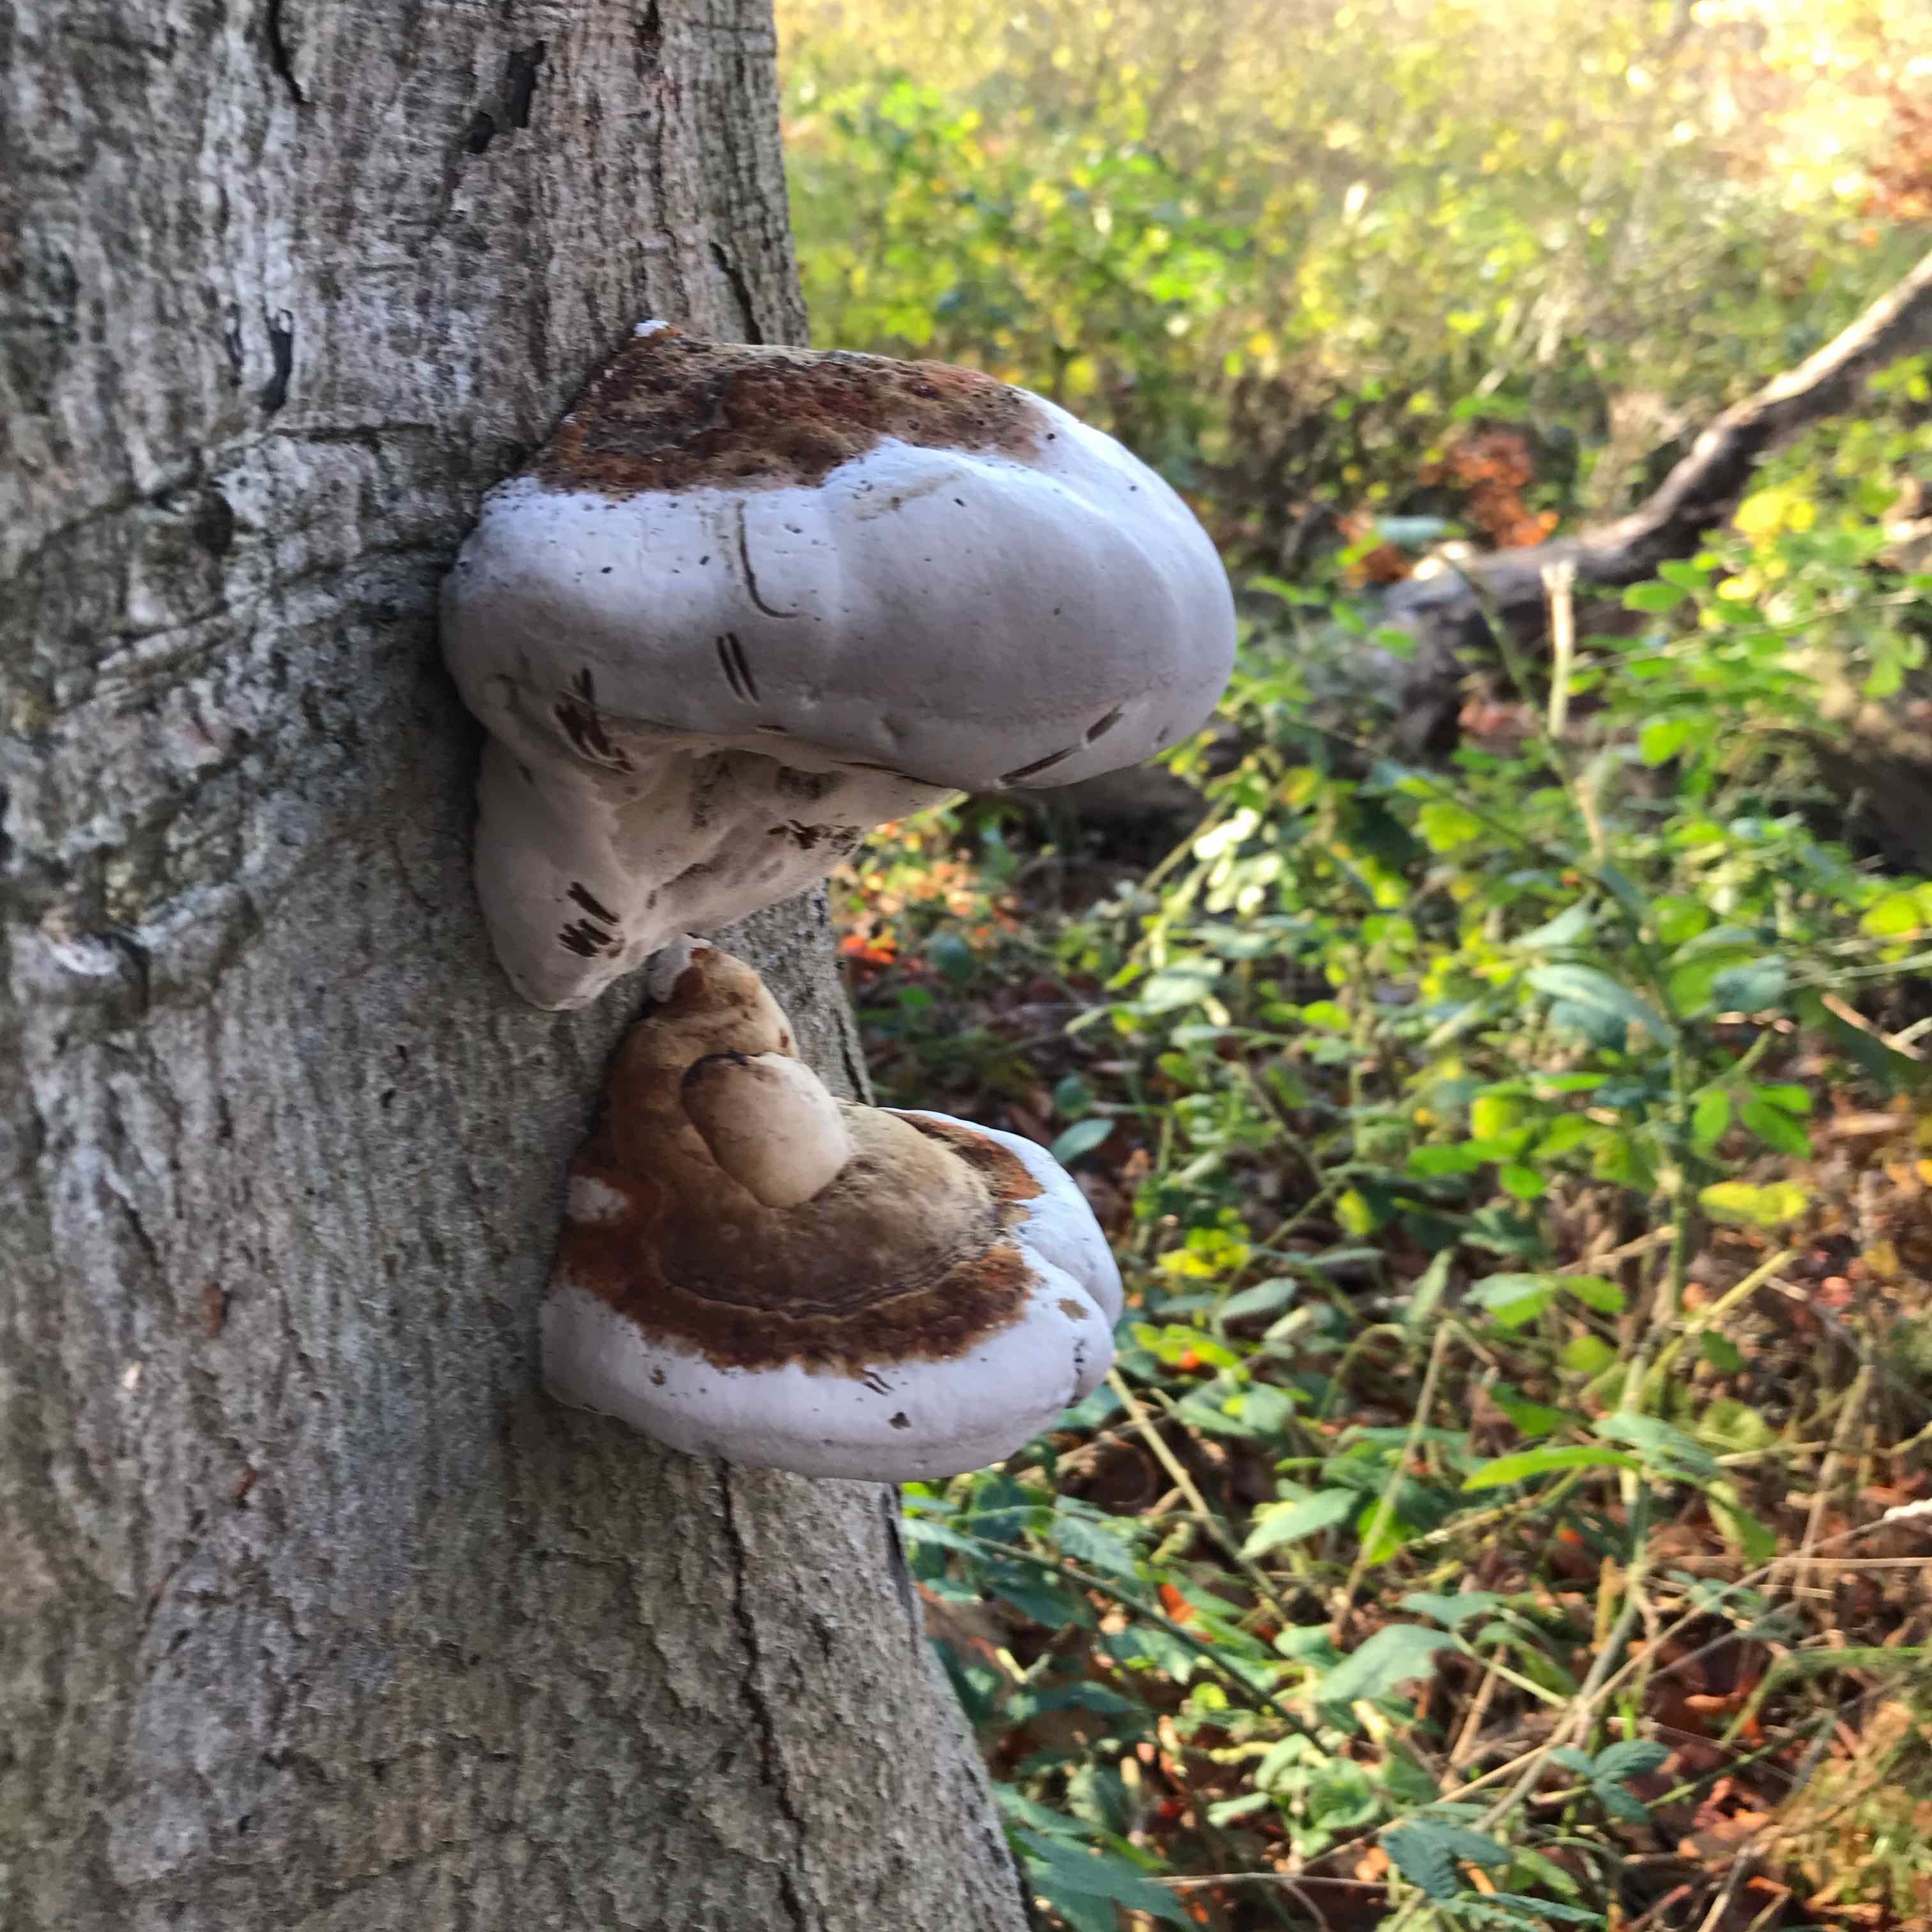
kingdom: Fungi
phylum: Basidiomycota
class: Agaricomycetes
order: Polyporales
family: Polyporaceae
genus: Fomes
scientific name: Fomes fomentarius
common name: tøndersvamp
